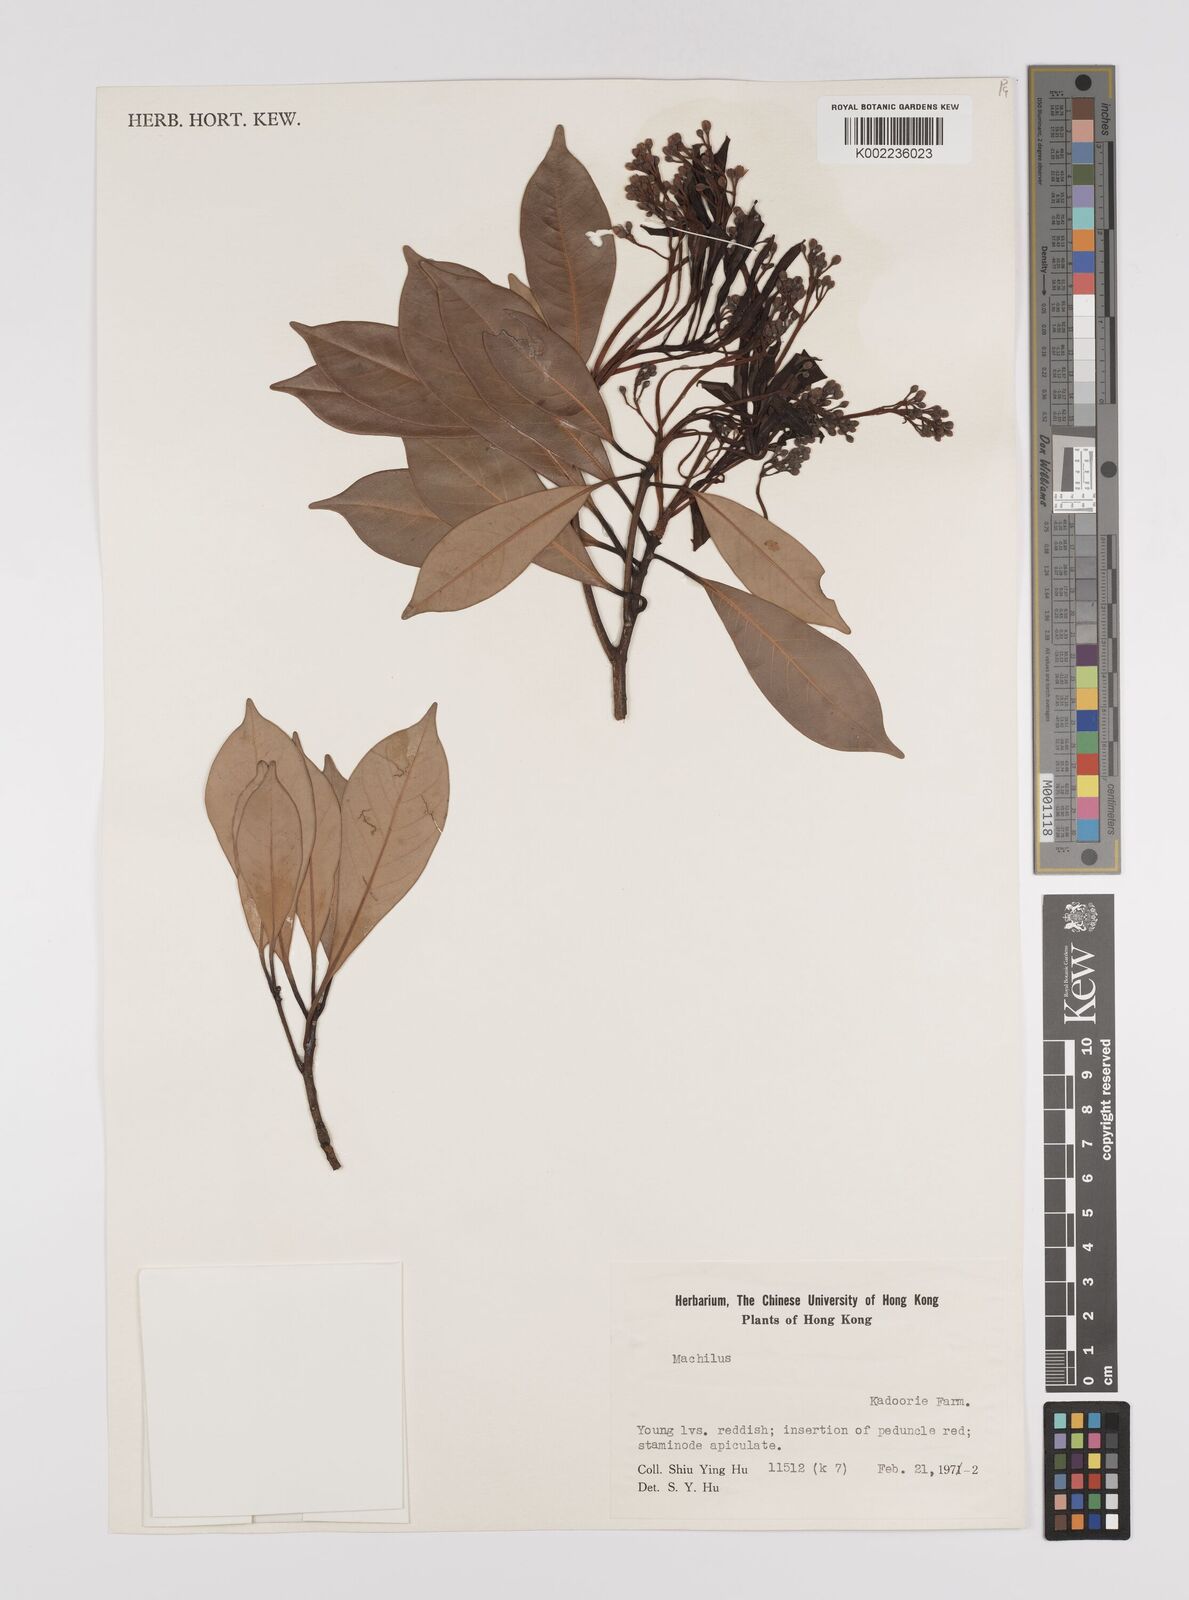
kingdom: Plantae
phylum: Tracheophyta
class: Magnoliopsida
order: Laurales
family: Lauraceae
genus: Persea
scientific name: Persea
